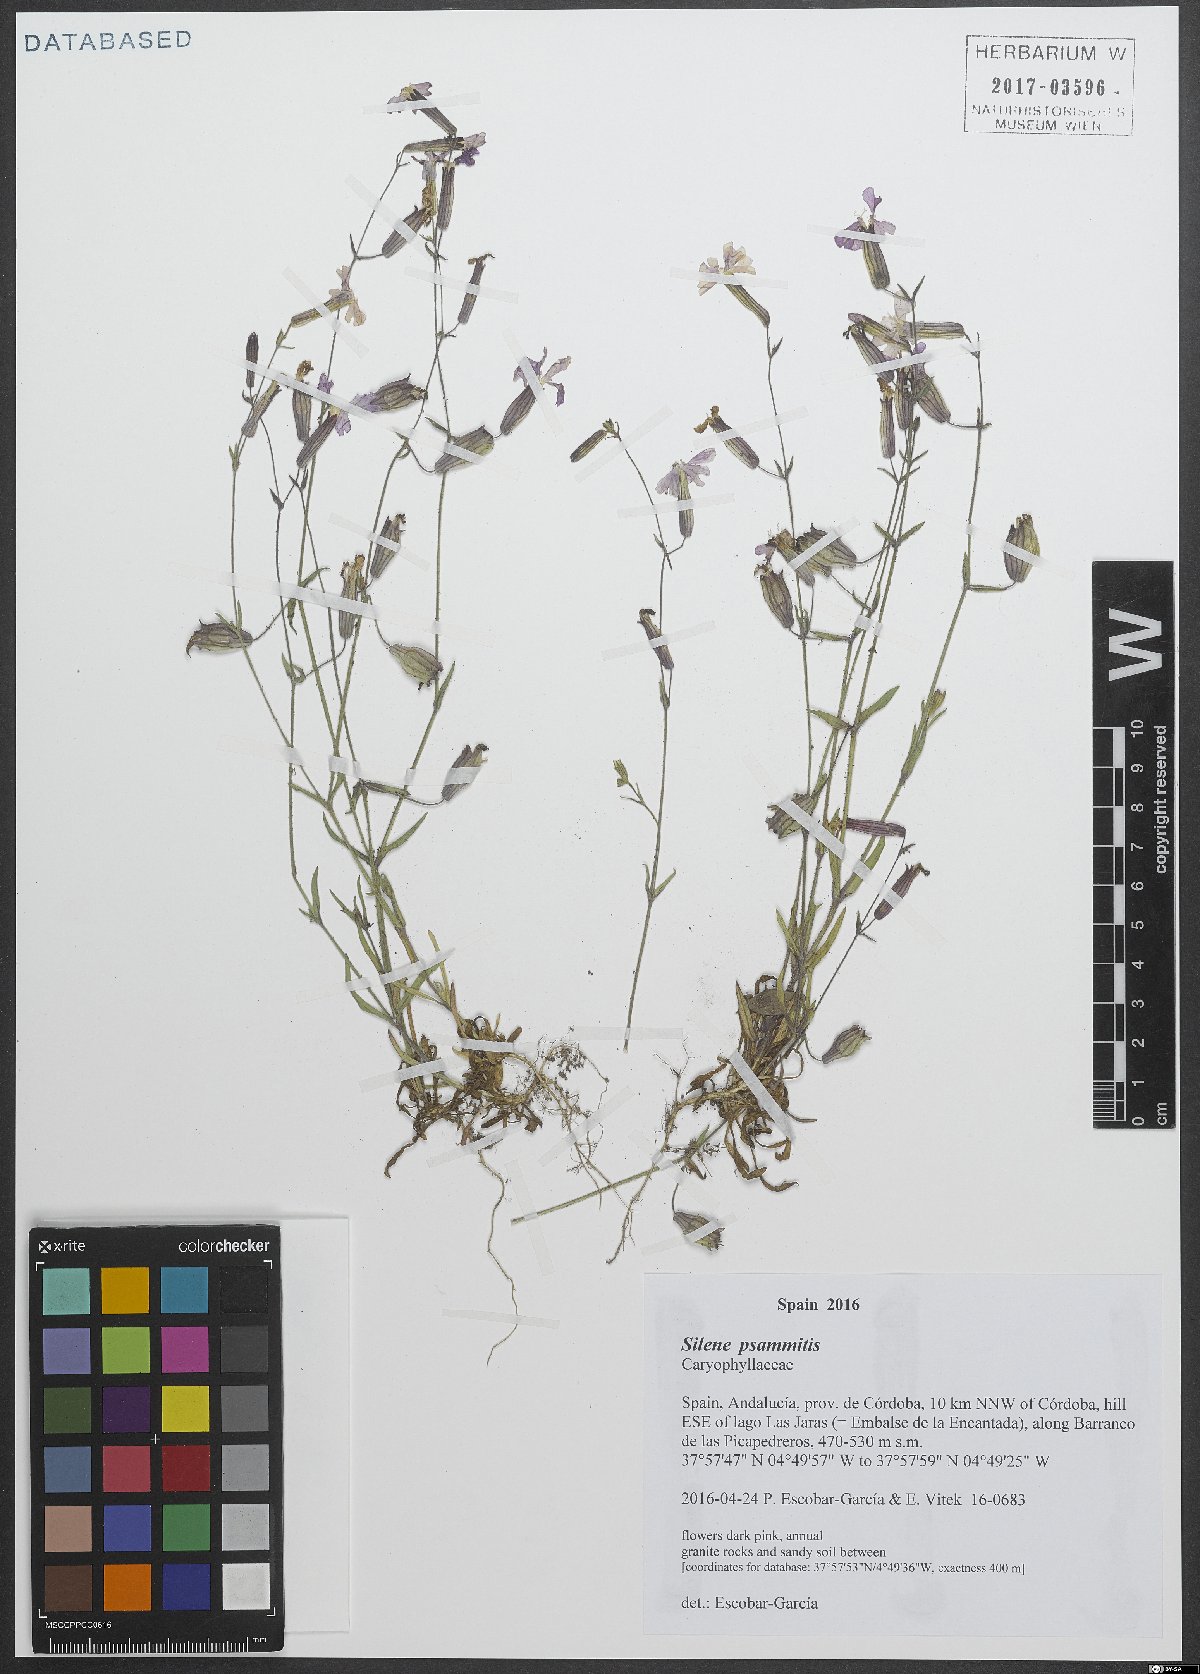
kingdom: Plantae
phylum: Tracheophyta
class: Magnoliopsida
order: Caryophyllales
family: Caryophyllaceae
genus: Silene
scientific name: Silene psammitis
